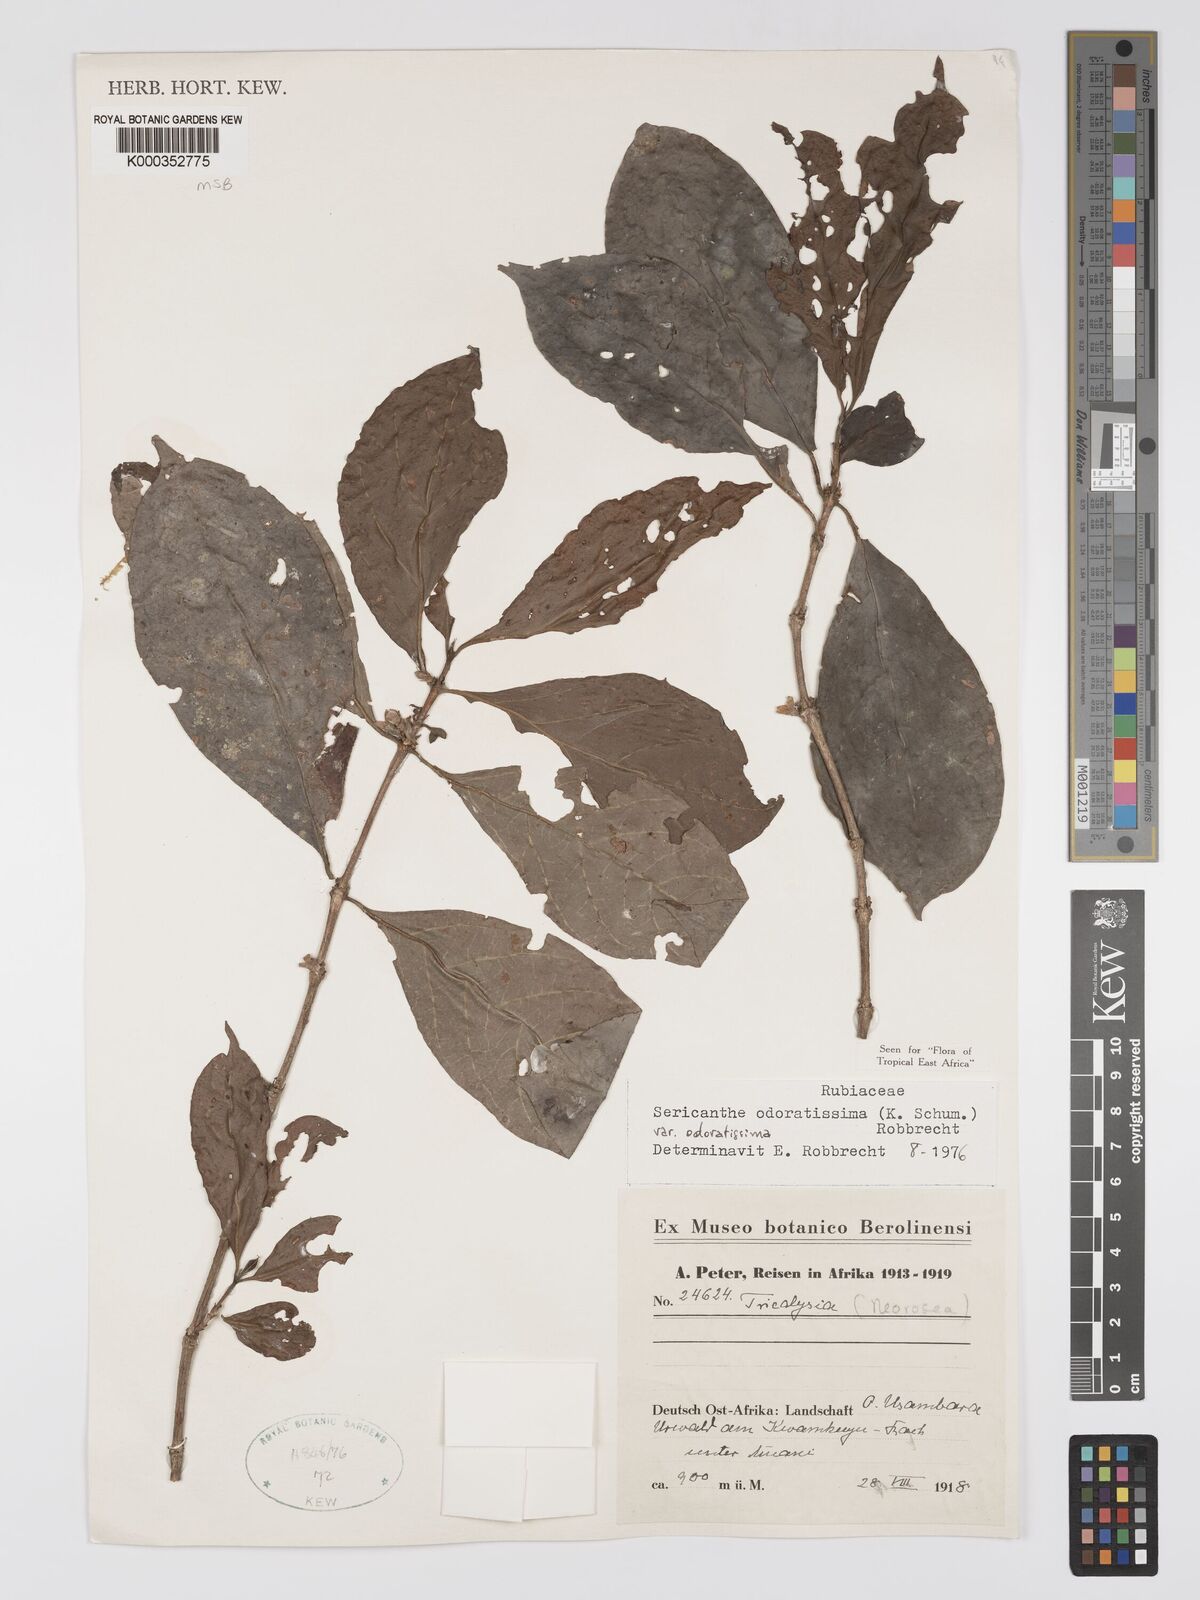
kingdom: Plantae
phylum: Tracheophyta
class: Magnoliopsida
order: Gentianales
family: Rubiaceae
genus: Sericanthe
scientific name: Sericanthe odoratissima
